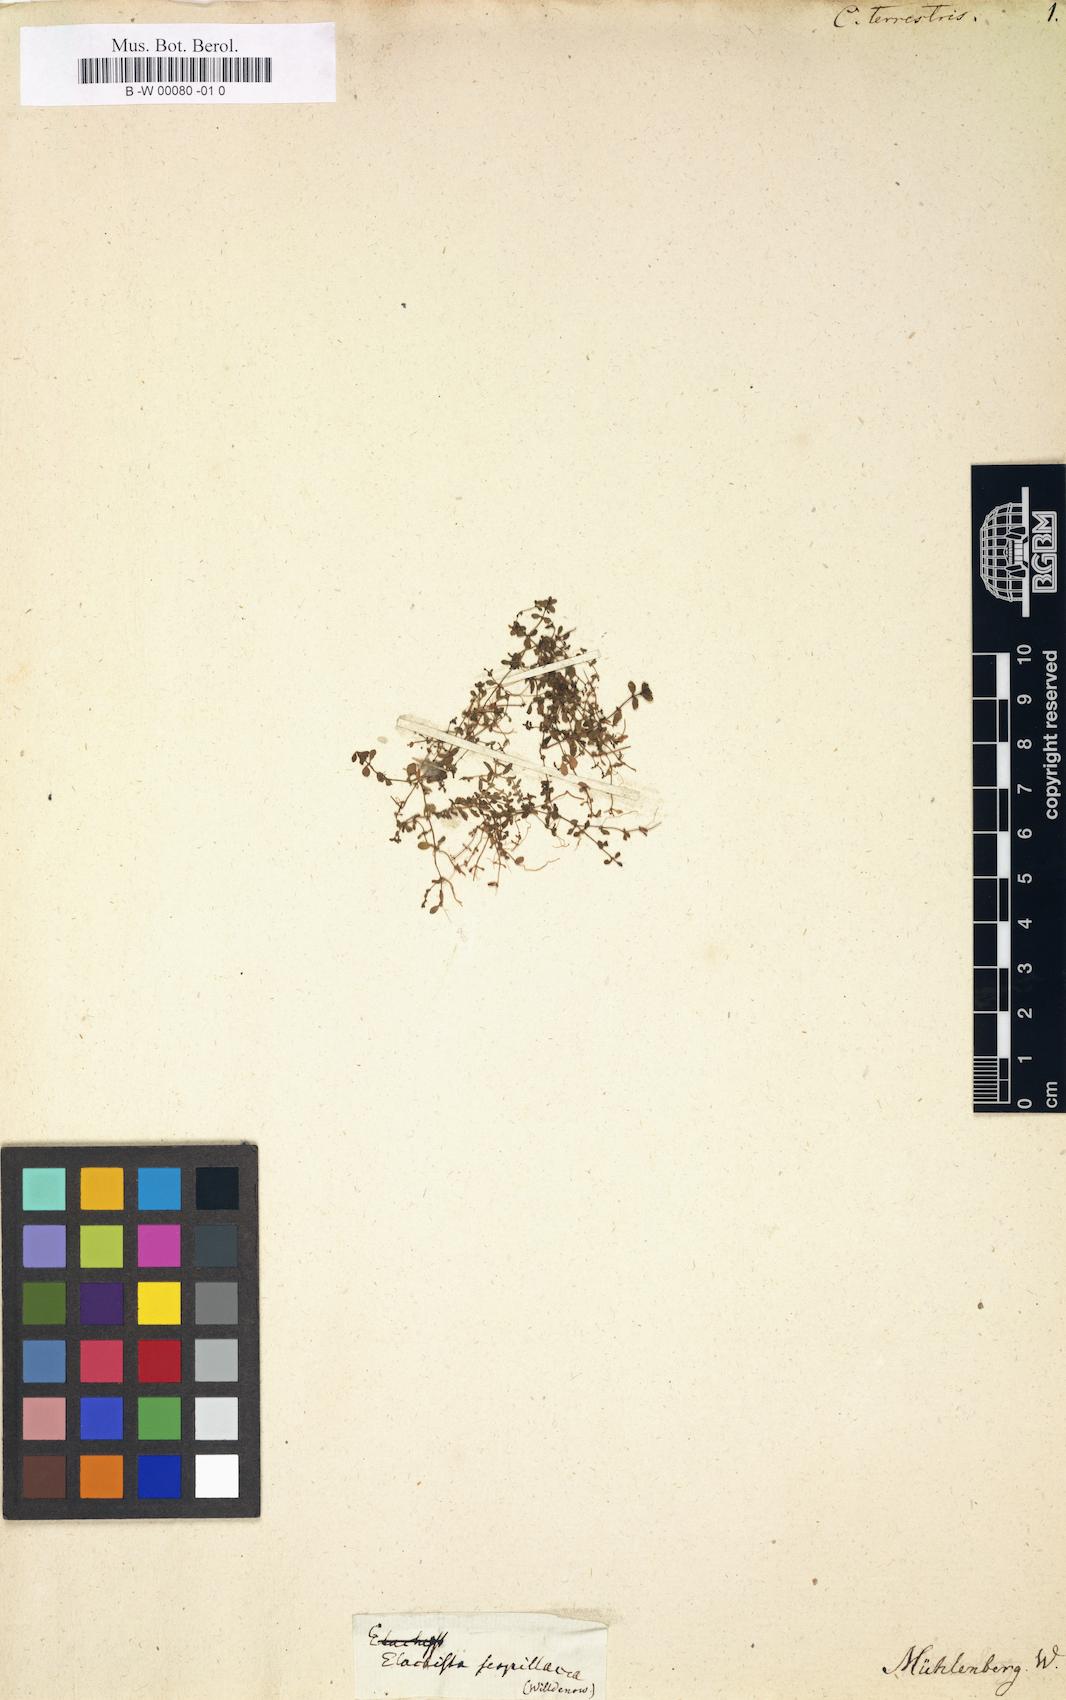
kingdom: Plantae
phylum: Tracheophyta
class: Magnoliopsida
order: Lamiales
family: Plantaginaceae
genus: Callitriche
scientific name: Callitriche terrestris
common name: Terrestrial water-starwort
